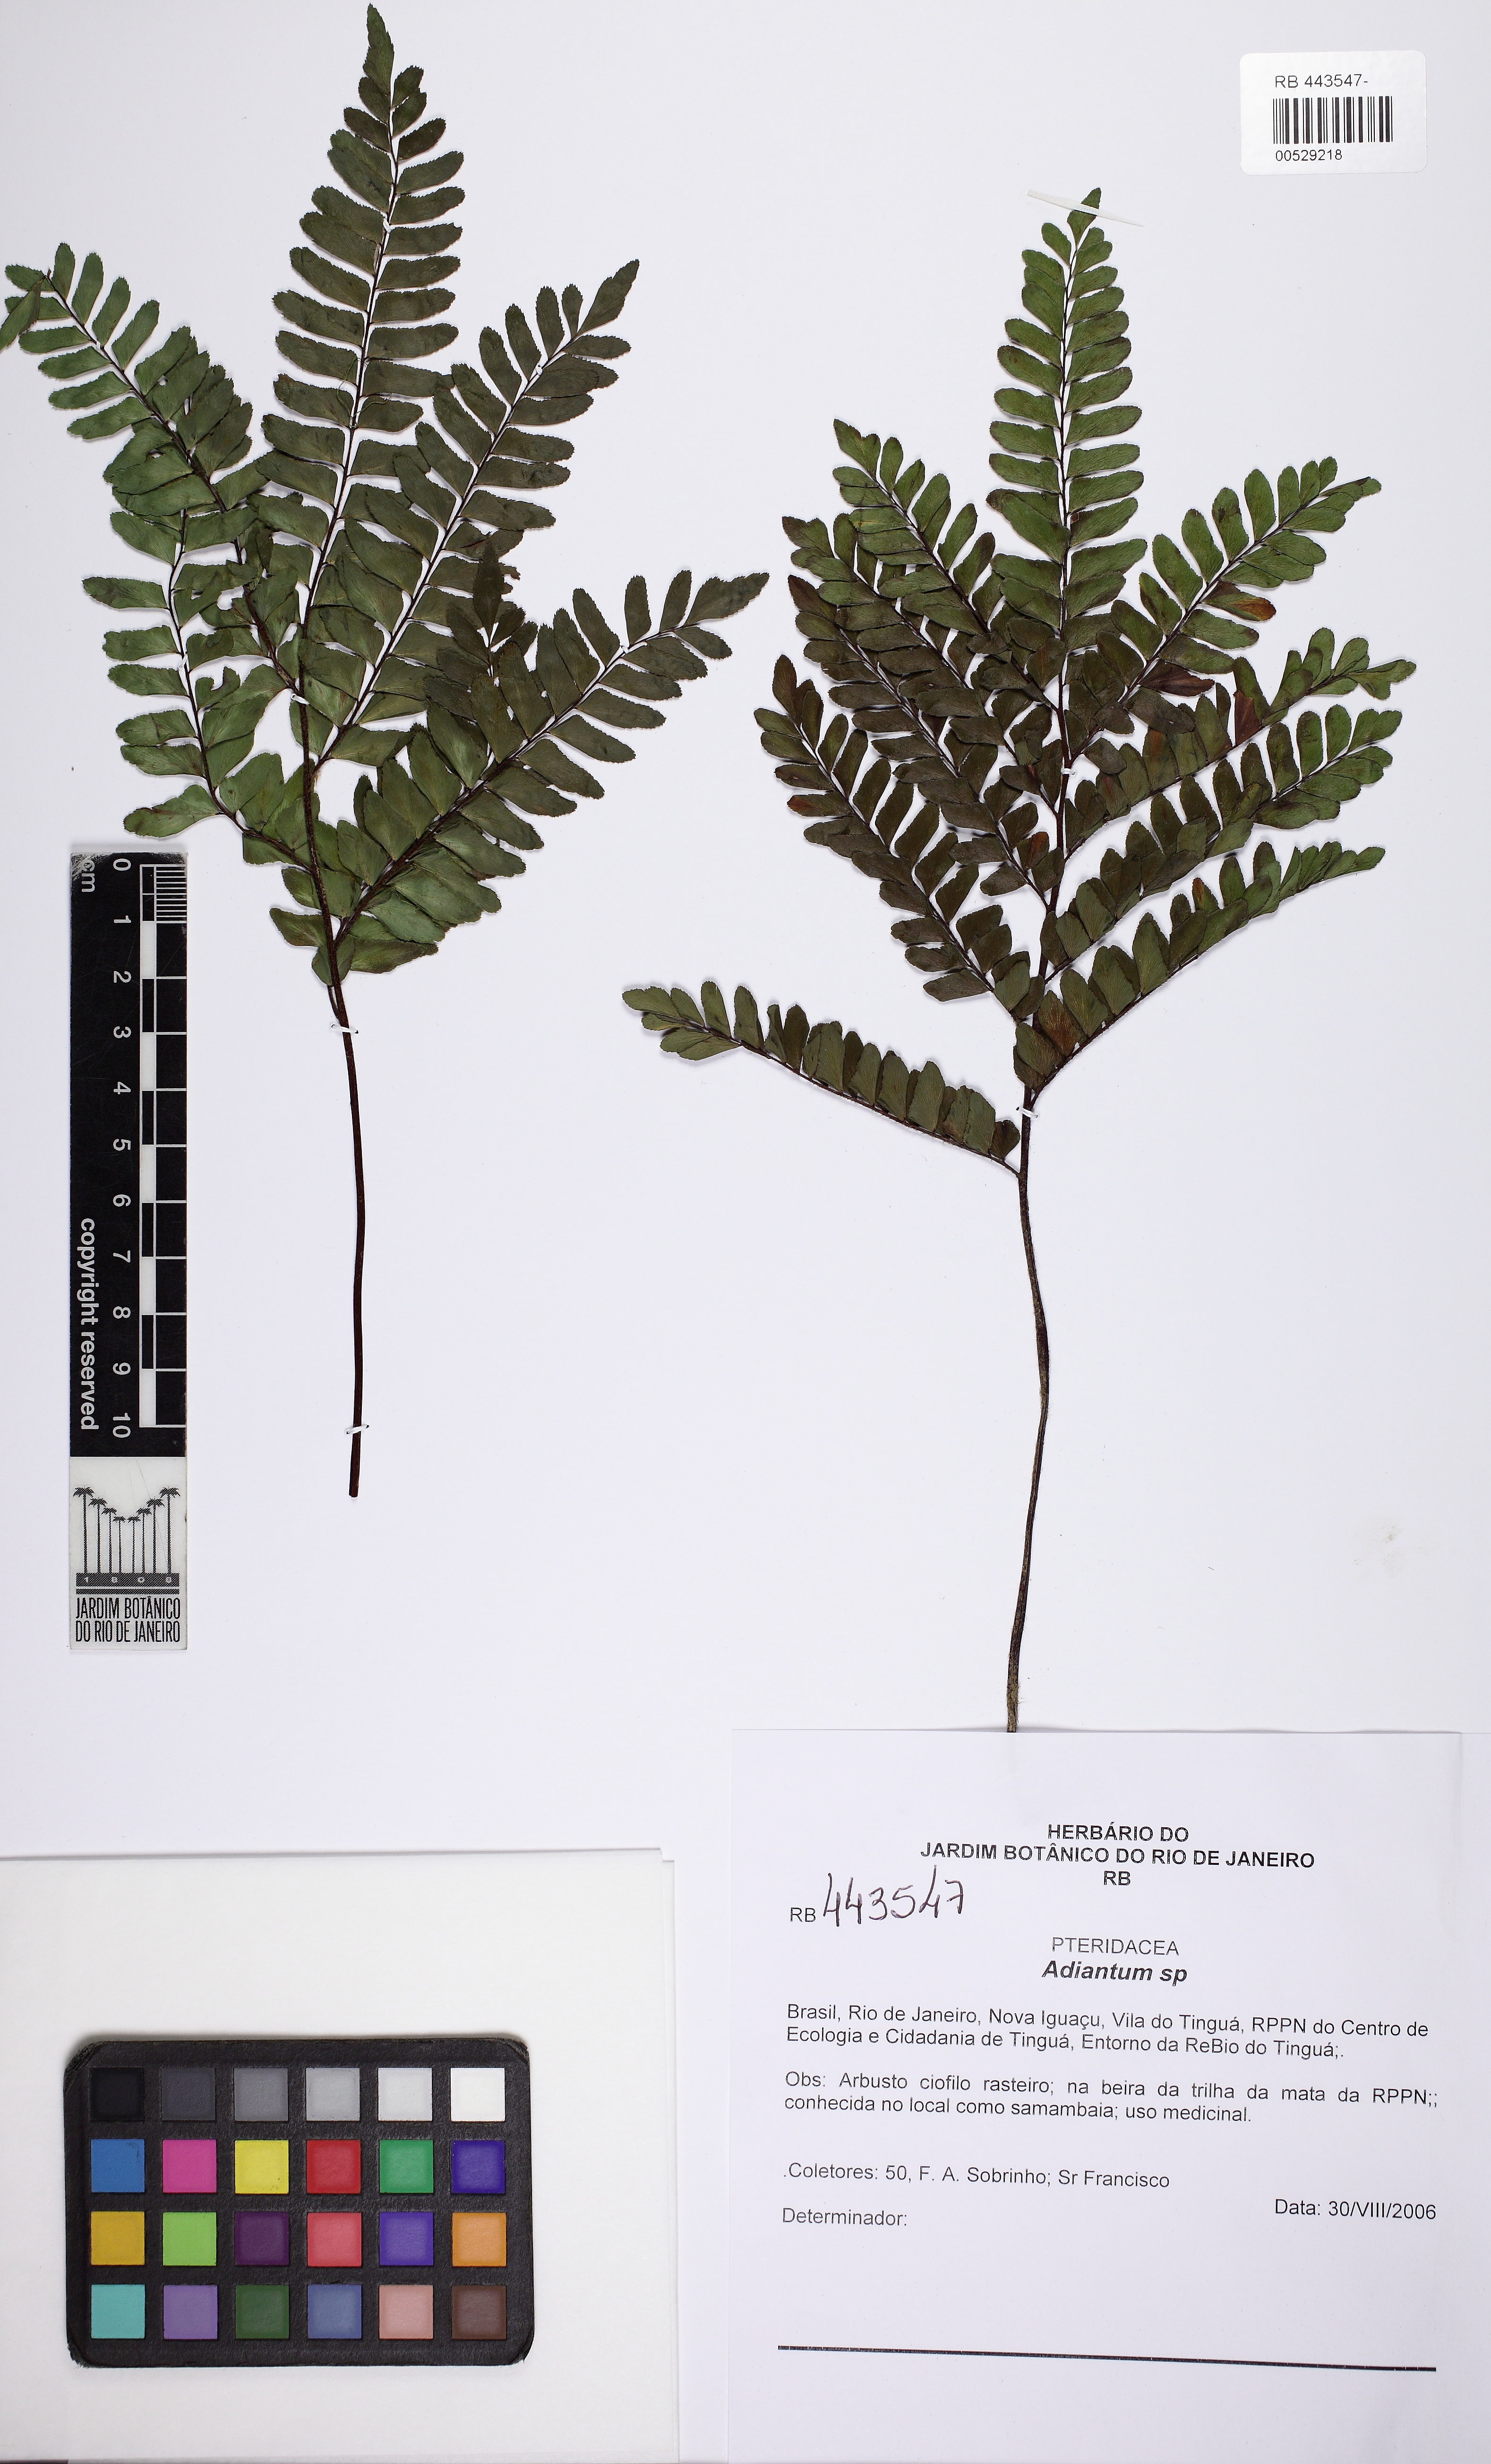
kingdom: Plantae
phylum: Tracheophyta
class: Polypodiopsida
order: Polypodiales
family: Pteridaceae
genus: Adiantum
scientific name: Adiantum serratodentatum
